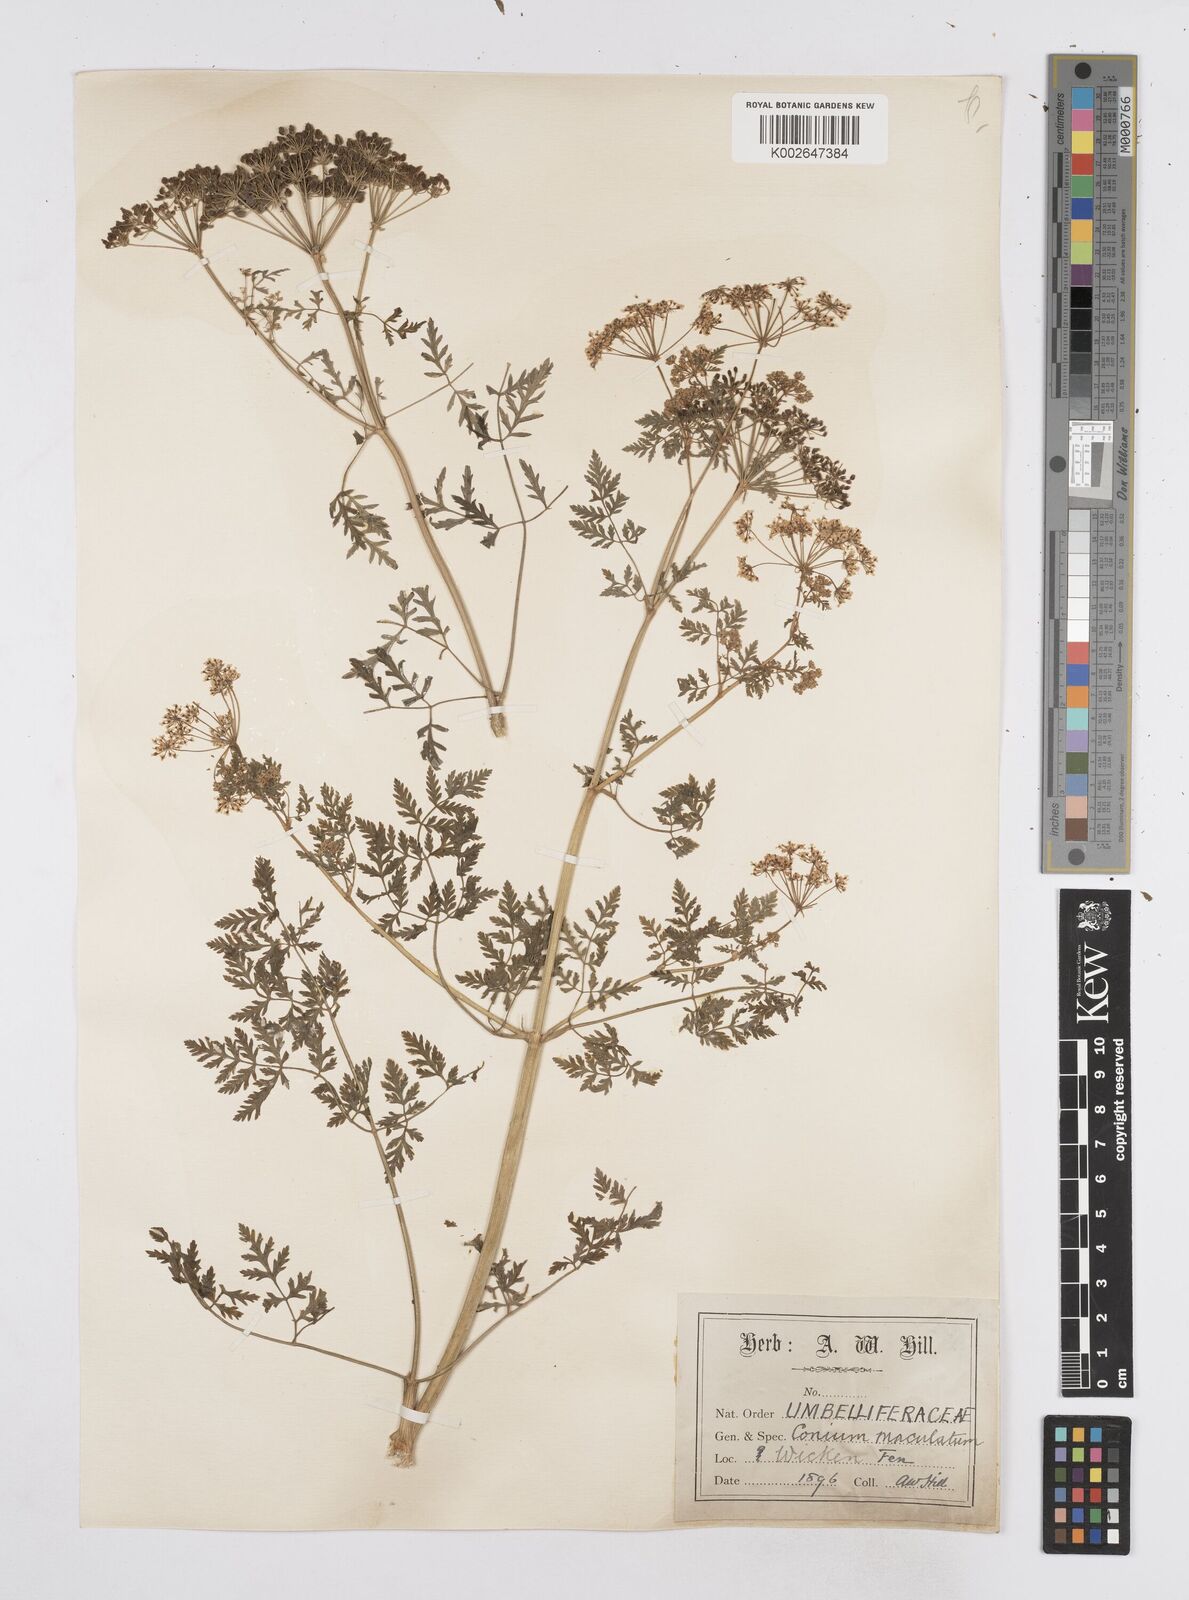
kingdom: Plantae
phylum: Tracheophyta
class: Magnoliopsida
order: Apiales
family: Apiaceae
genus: Conium
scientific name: Conium maculatum
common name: Hemlock
